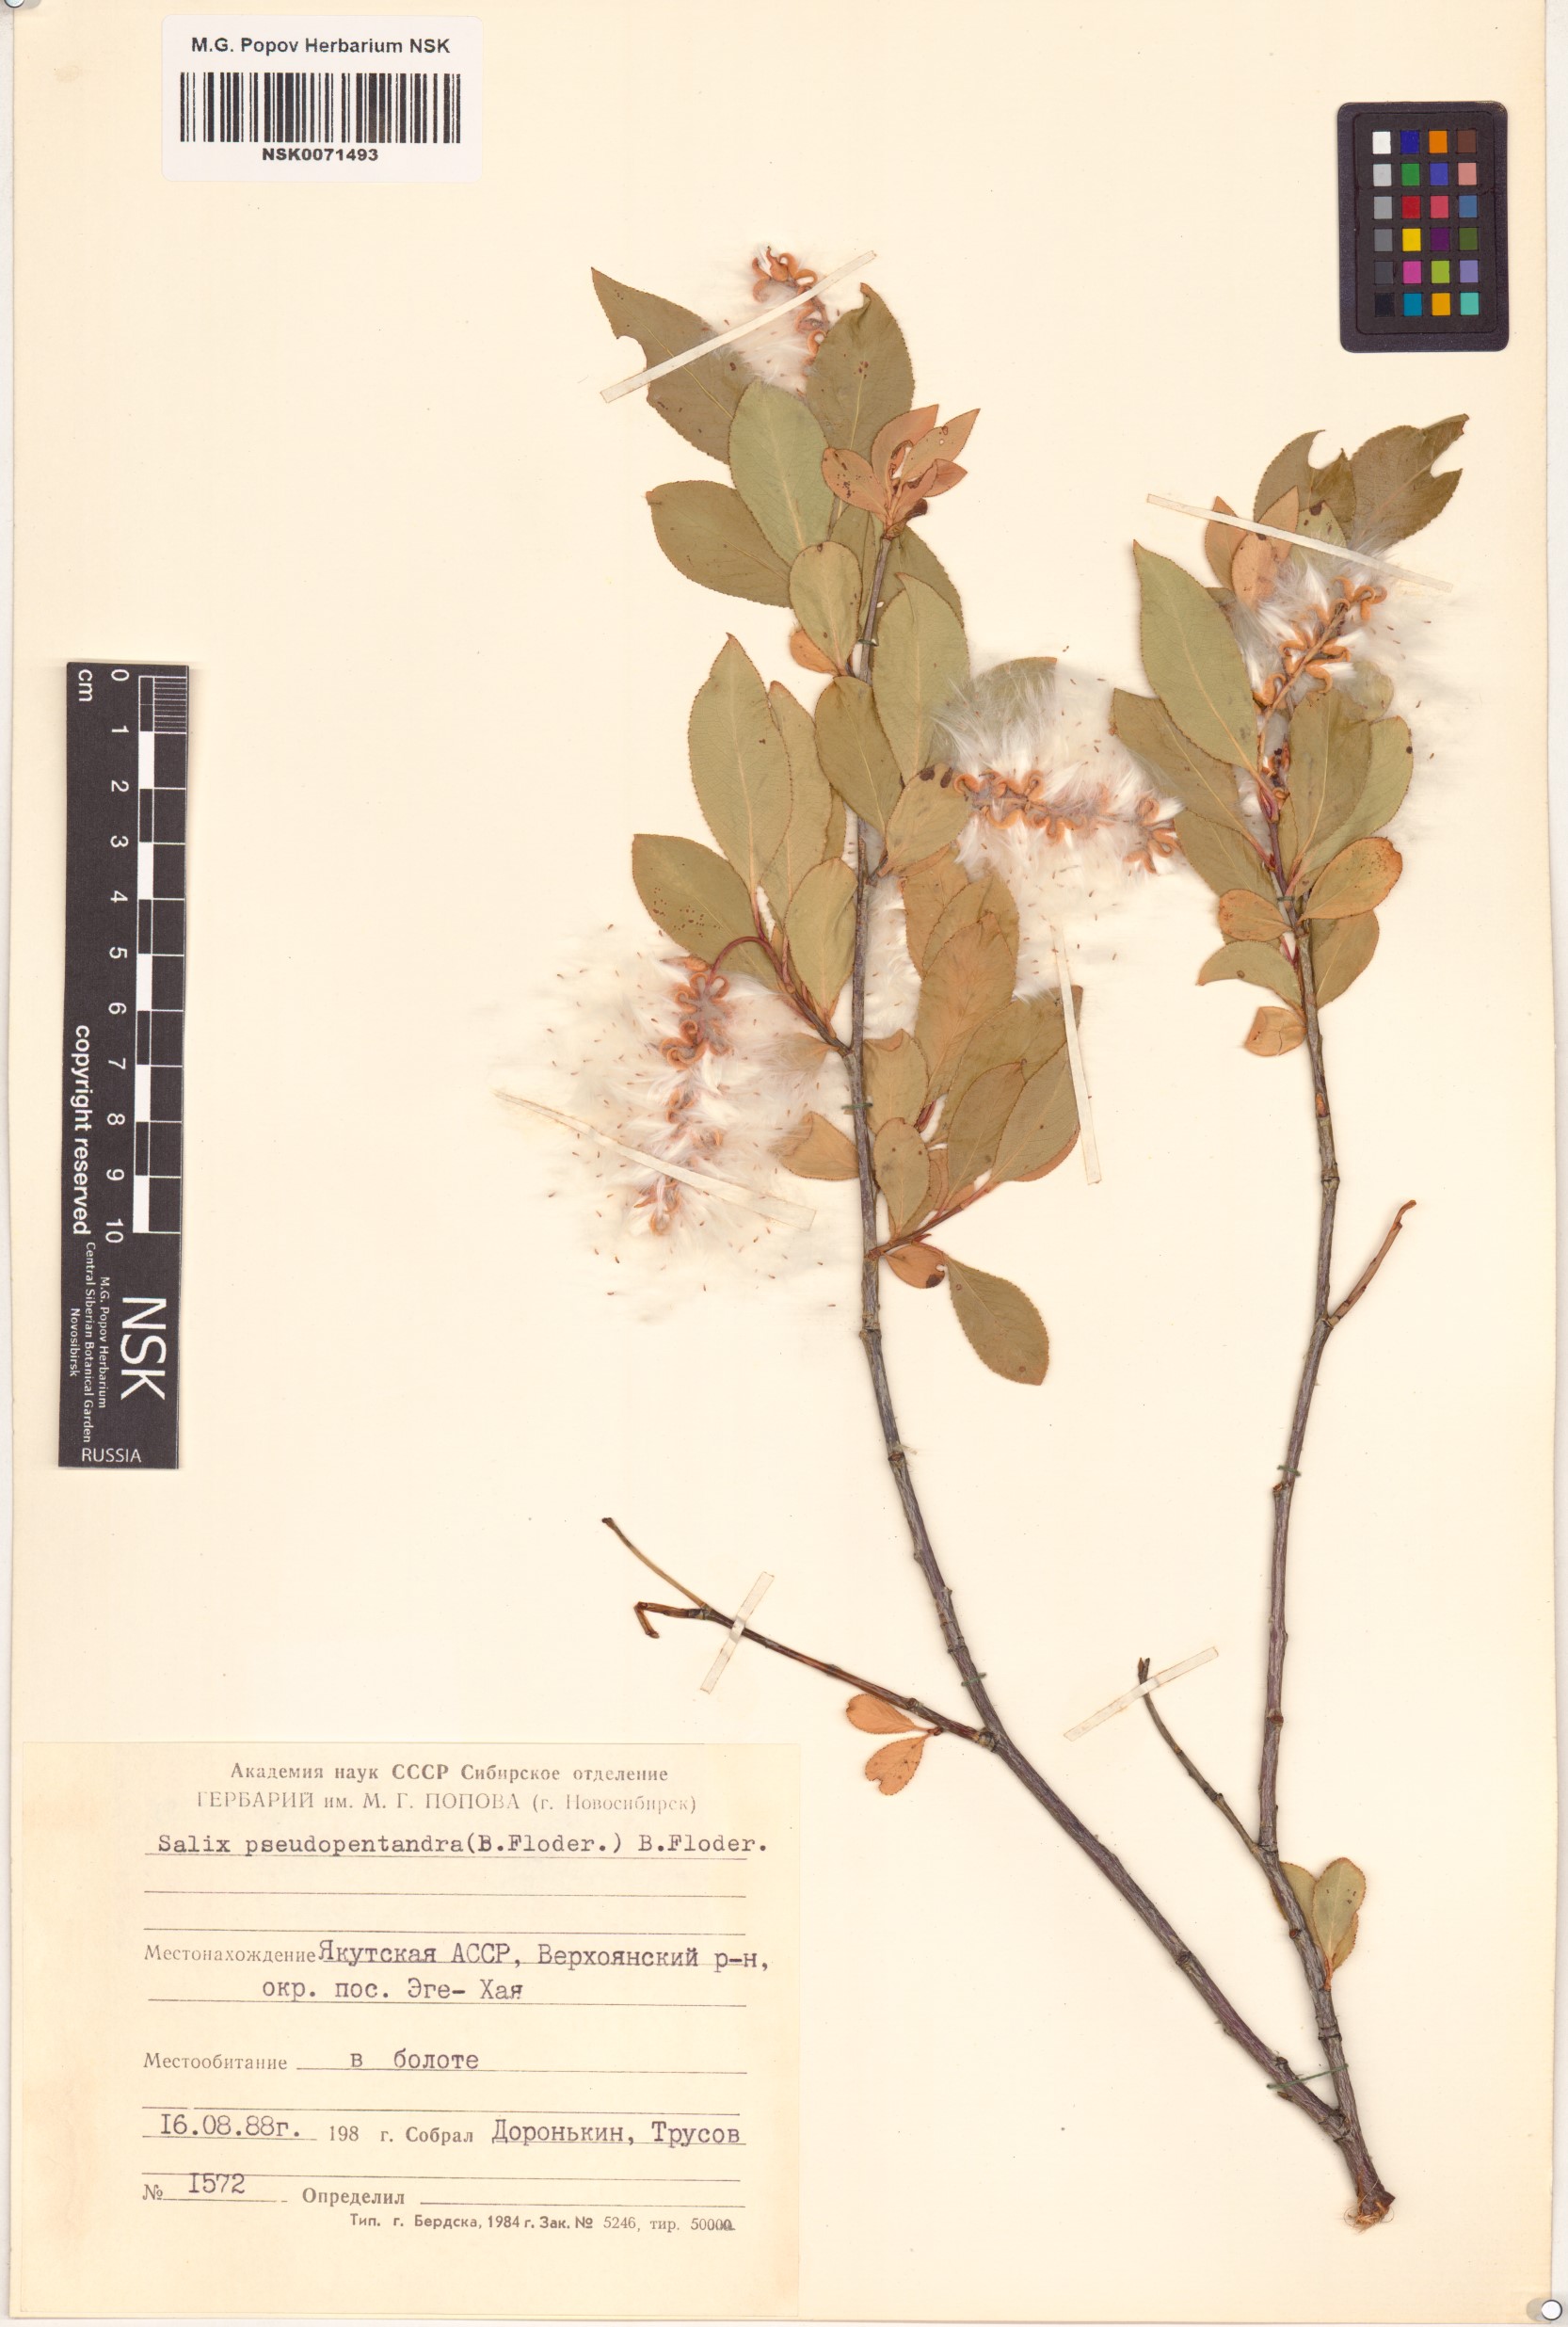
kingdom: Plantae
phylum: Tracheophyta
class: Magnoliopsida
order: Malpighiales
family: Salicaceae
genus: Salix
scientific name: Salix pseudopentandra
